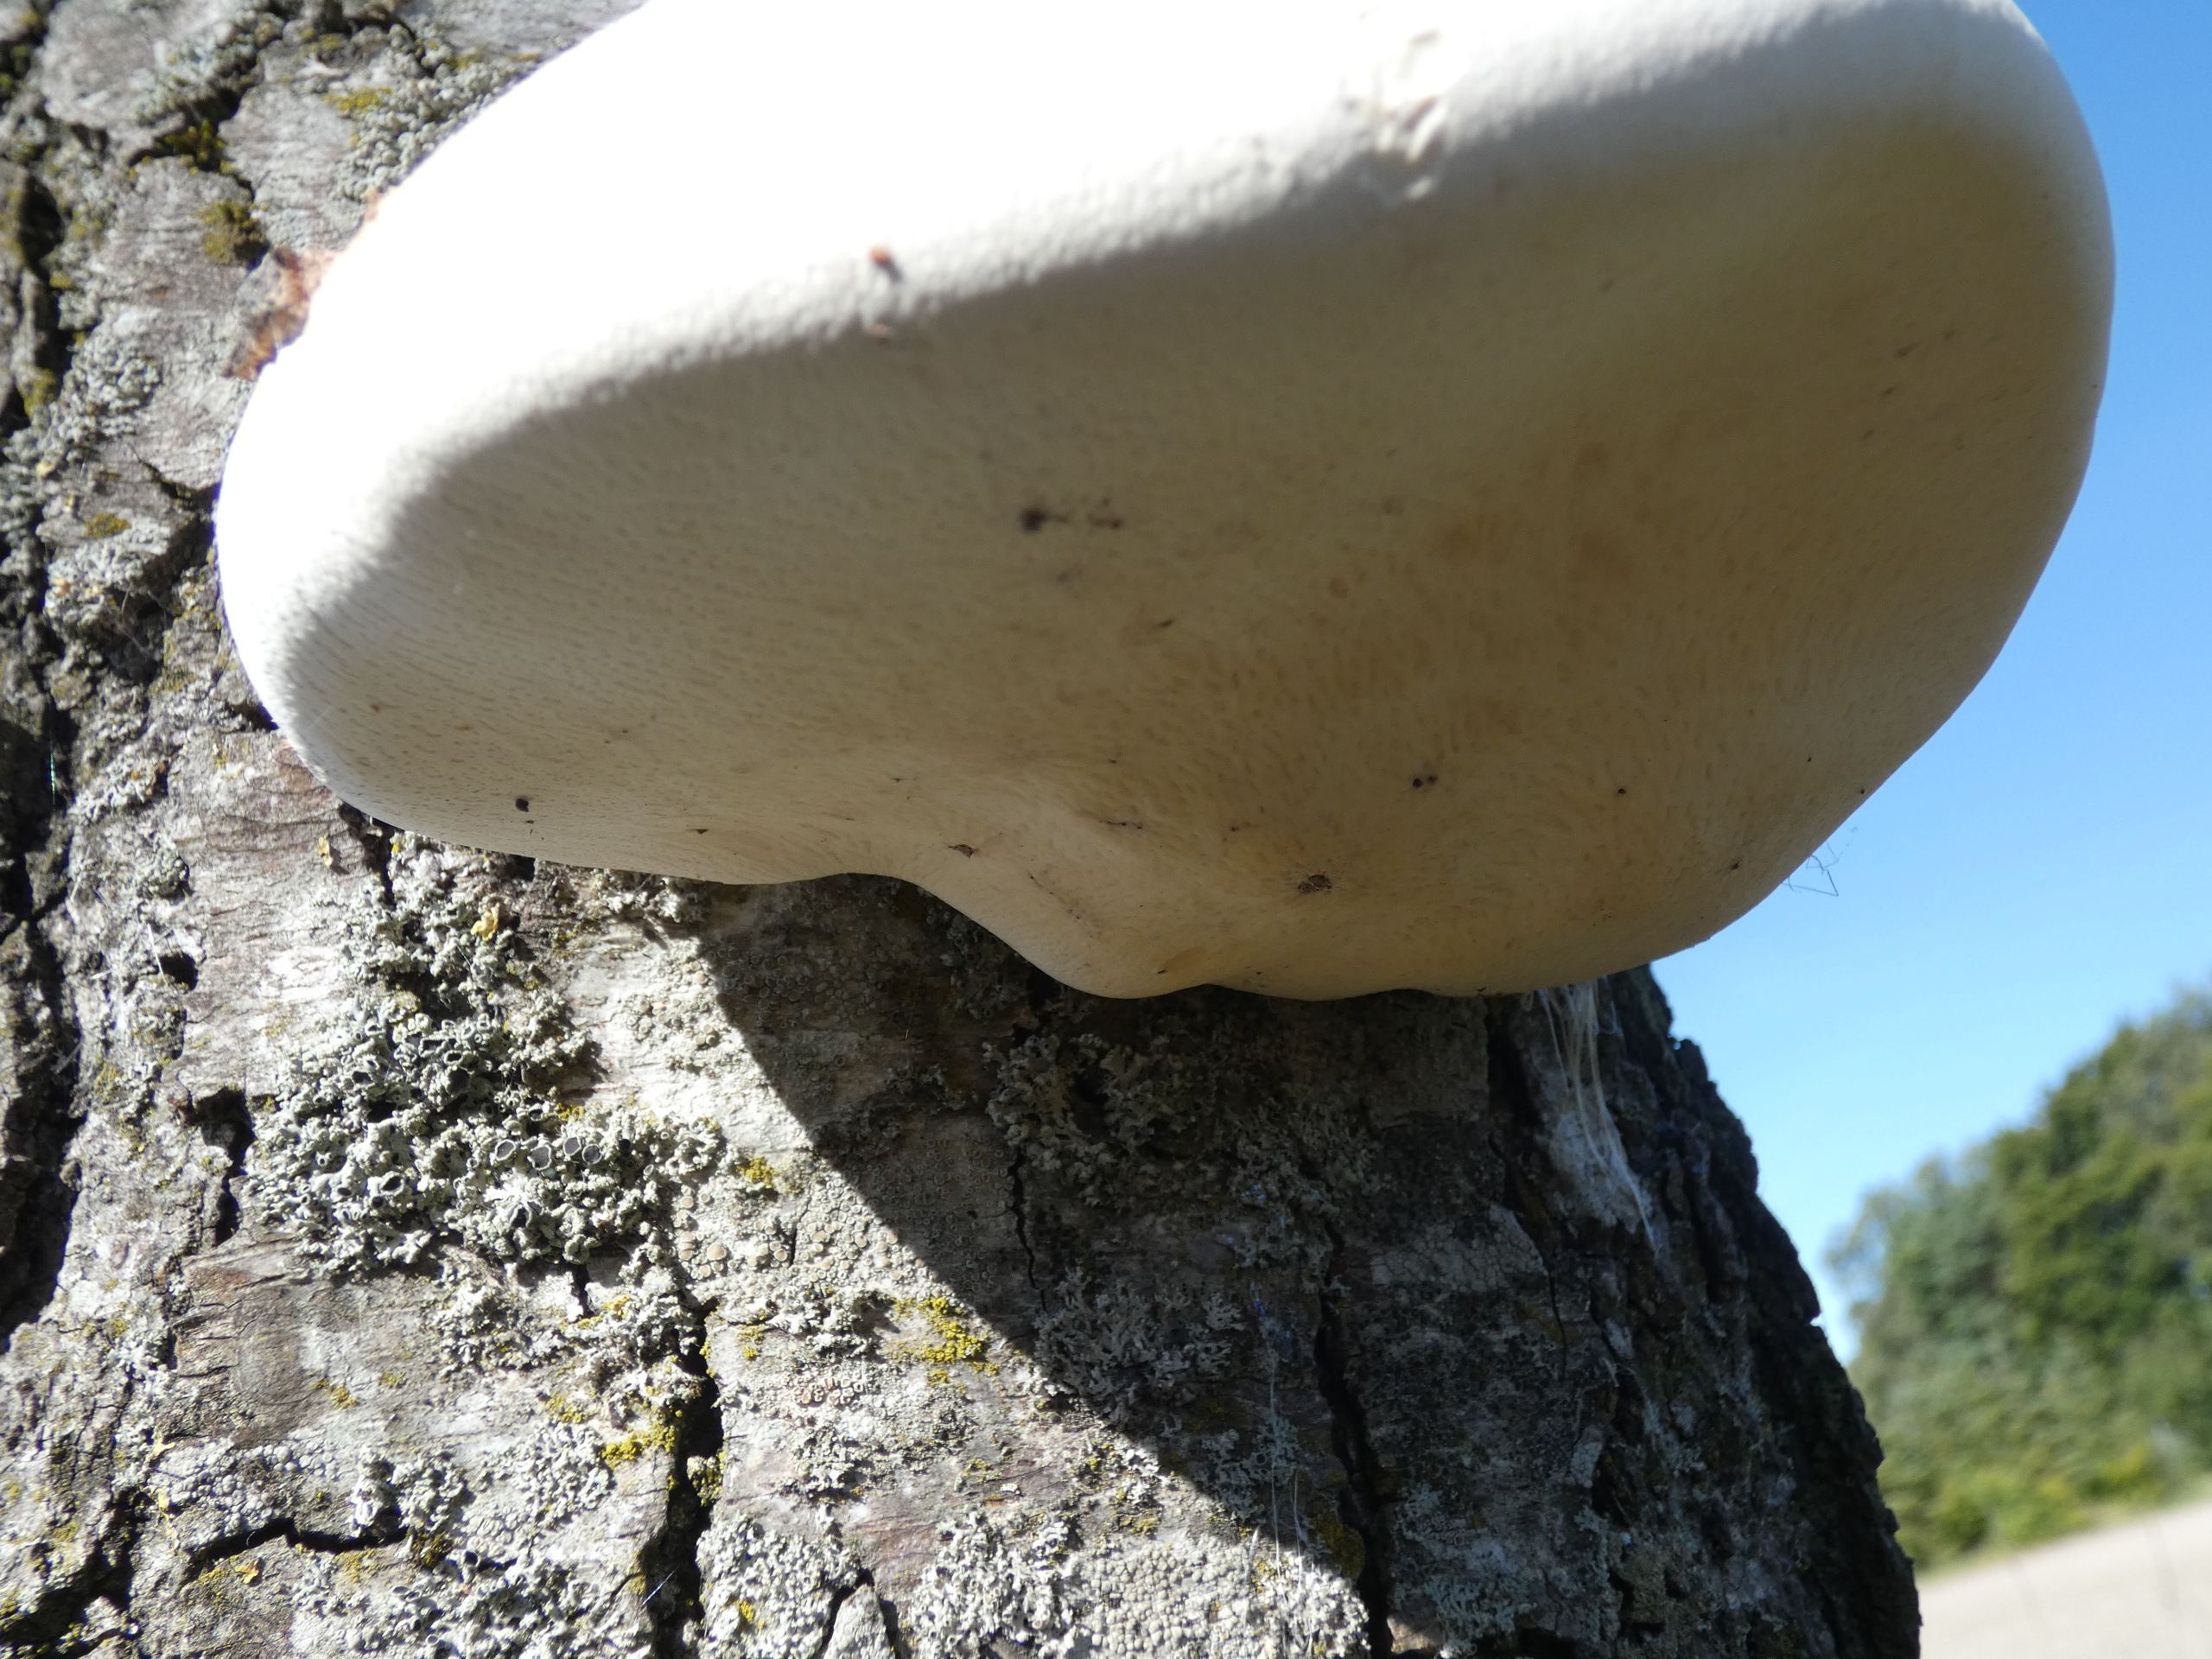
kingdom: Fungi
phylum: Basidiomycota
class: Agaricomycetes
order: Polyporales
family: Fomitopsidaceae
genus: Fomitopsis
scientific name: Fomitopsis betulina
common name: Birkeporesvamp
